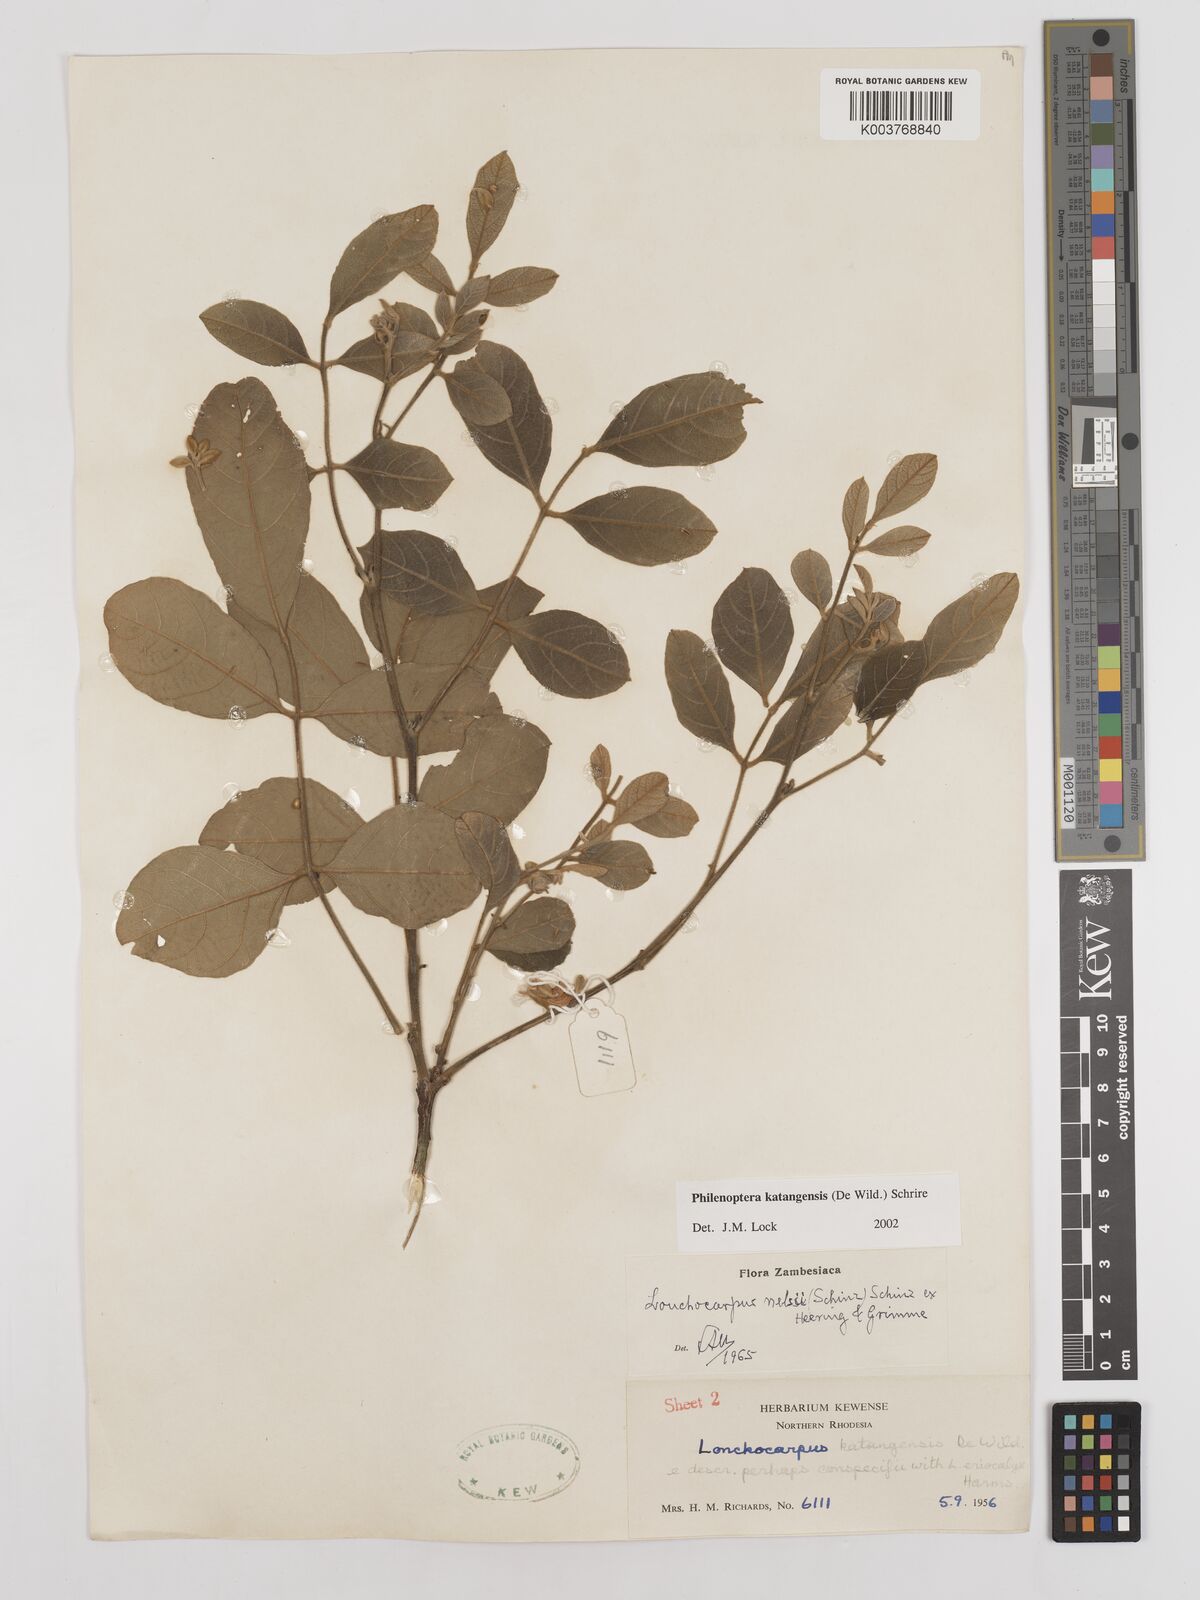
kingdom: Plantae
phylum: Tracheophyta
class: Magnoliopsida
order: Fabales
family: Fabaceae
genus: Philenoptera
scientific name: Philenoptera katangensis
